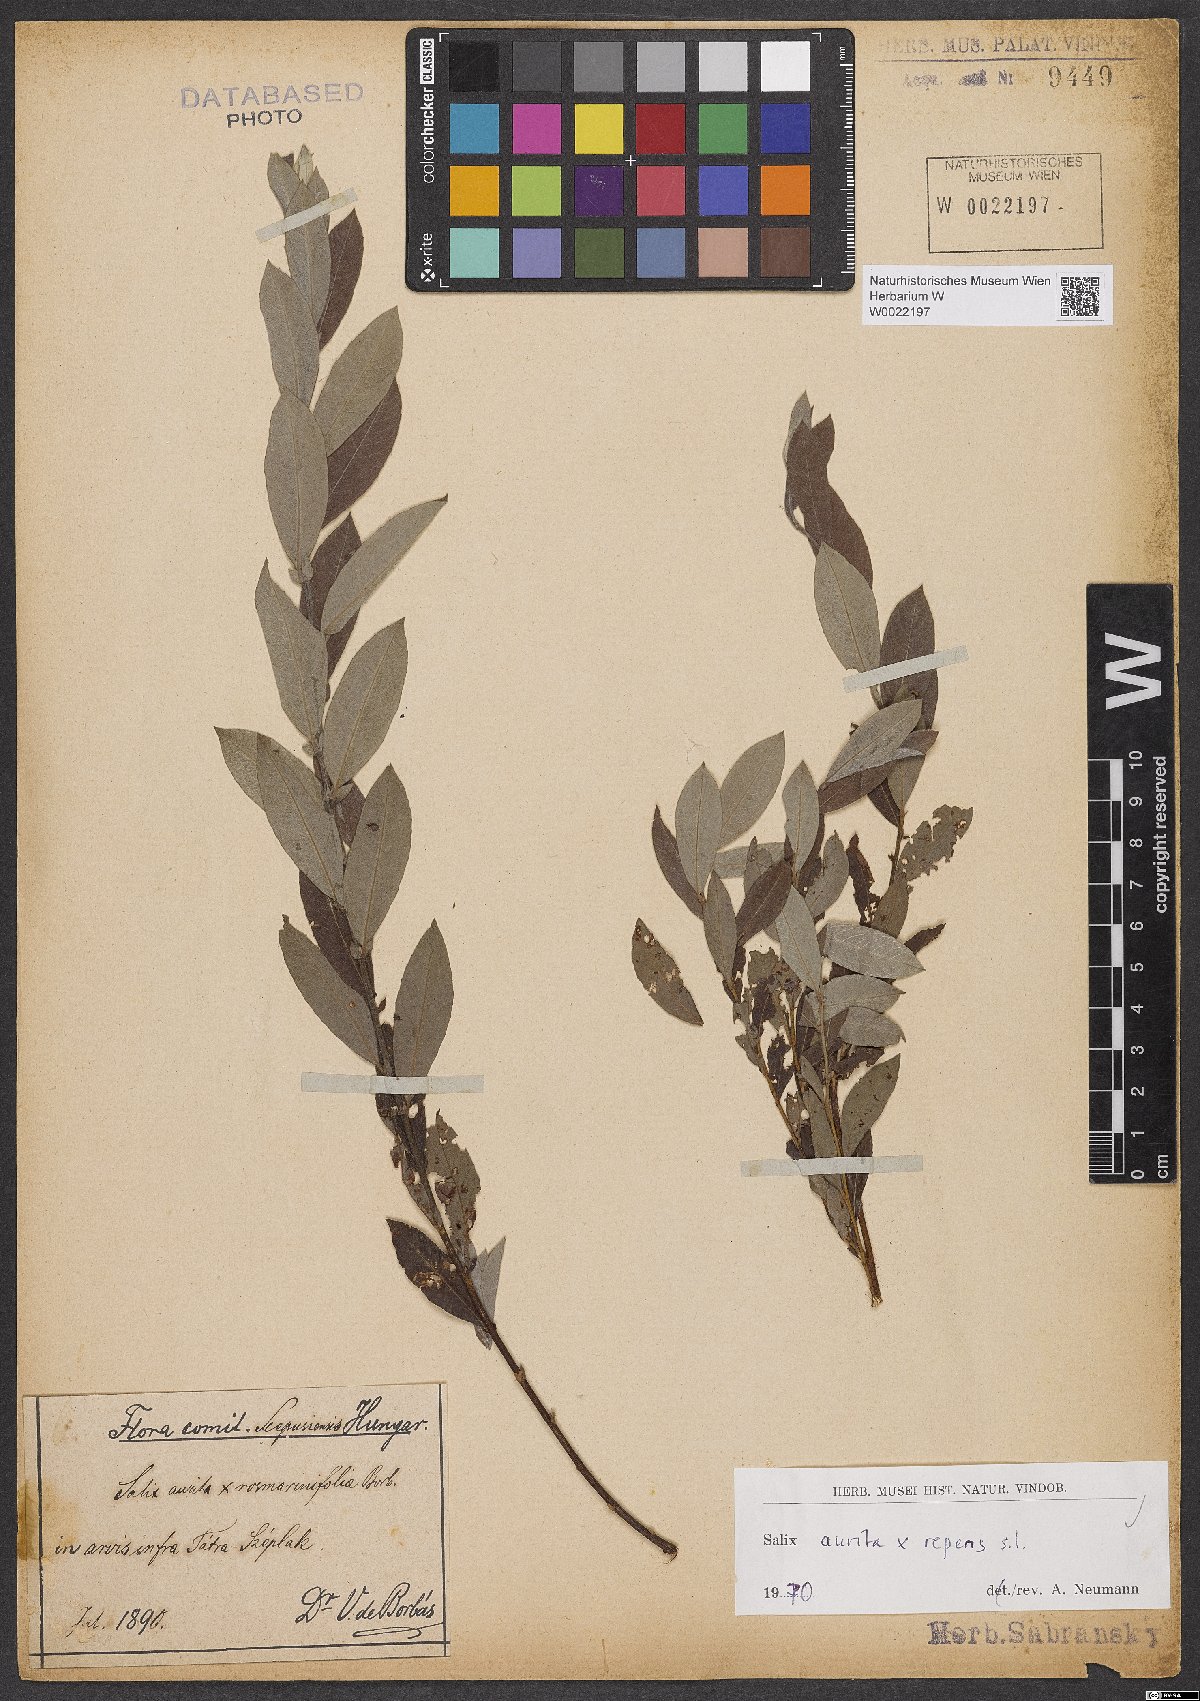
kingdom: Plantae
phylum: Tracheophyta
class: Magnoliopsida
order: Malpighiales
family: Salicaceae
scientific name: Salicaceae
